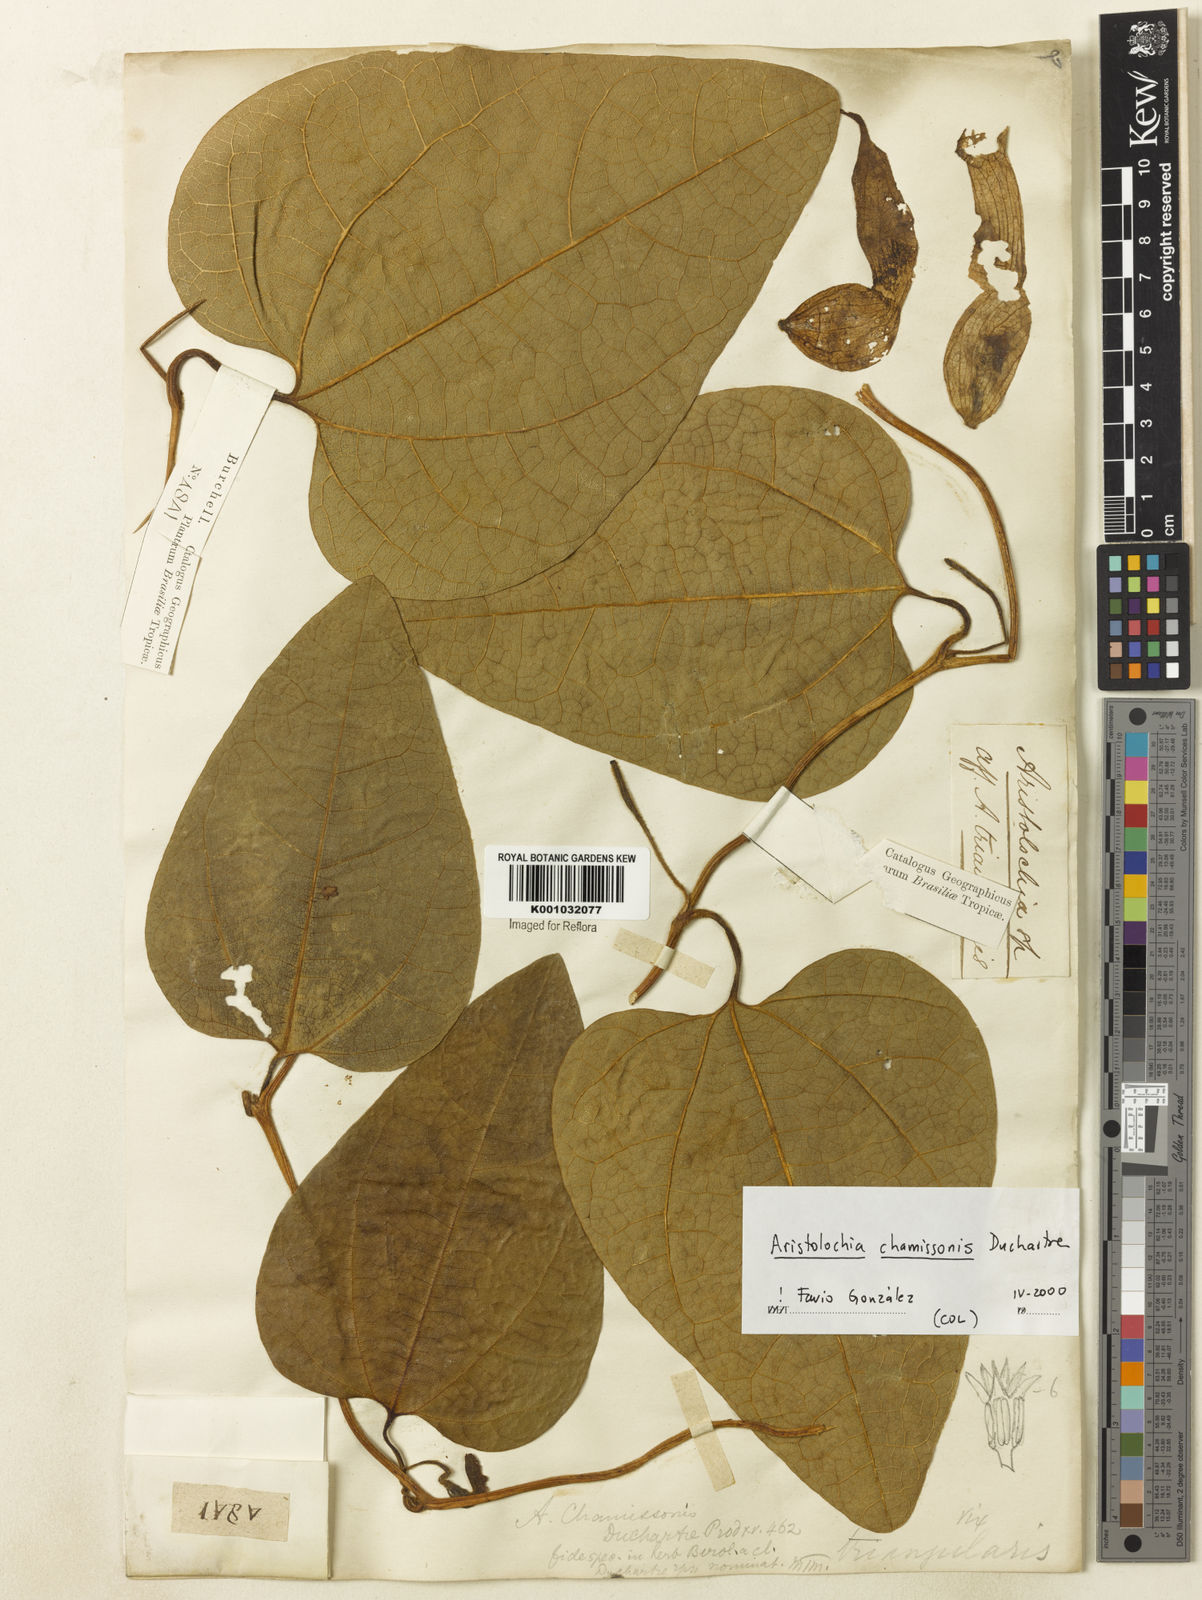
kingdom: Plantae
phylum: Tracheophyta
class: Magnoliopsida
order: Piperales
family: Aristolochiaceae
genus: Aristolochia
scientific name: Aristolochia chamissonis
